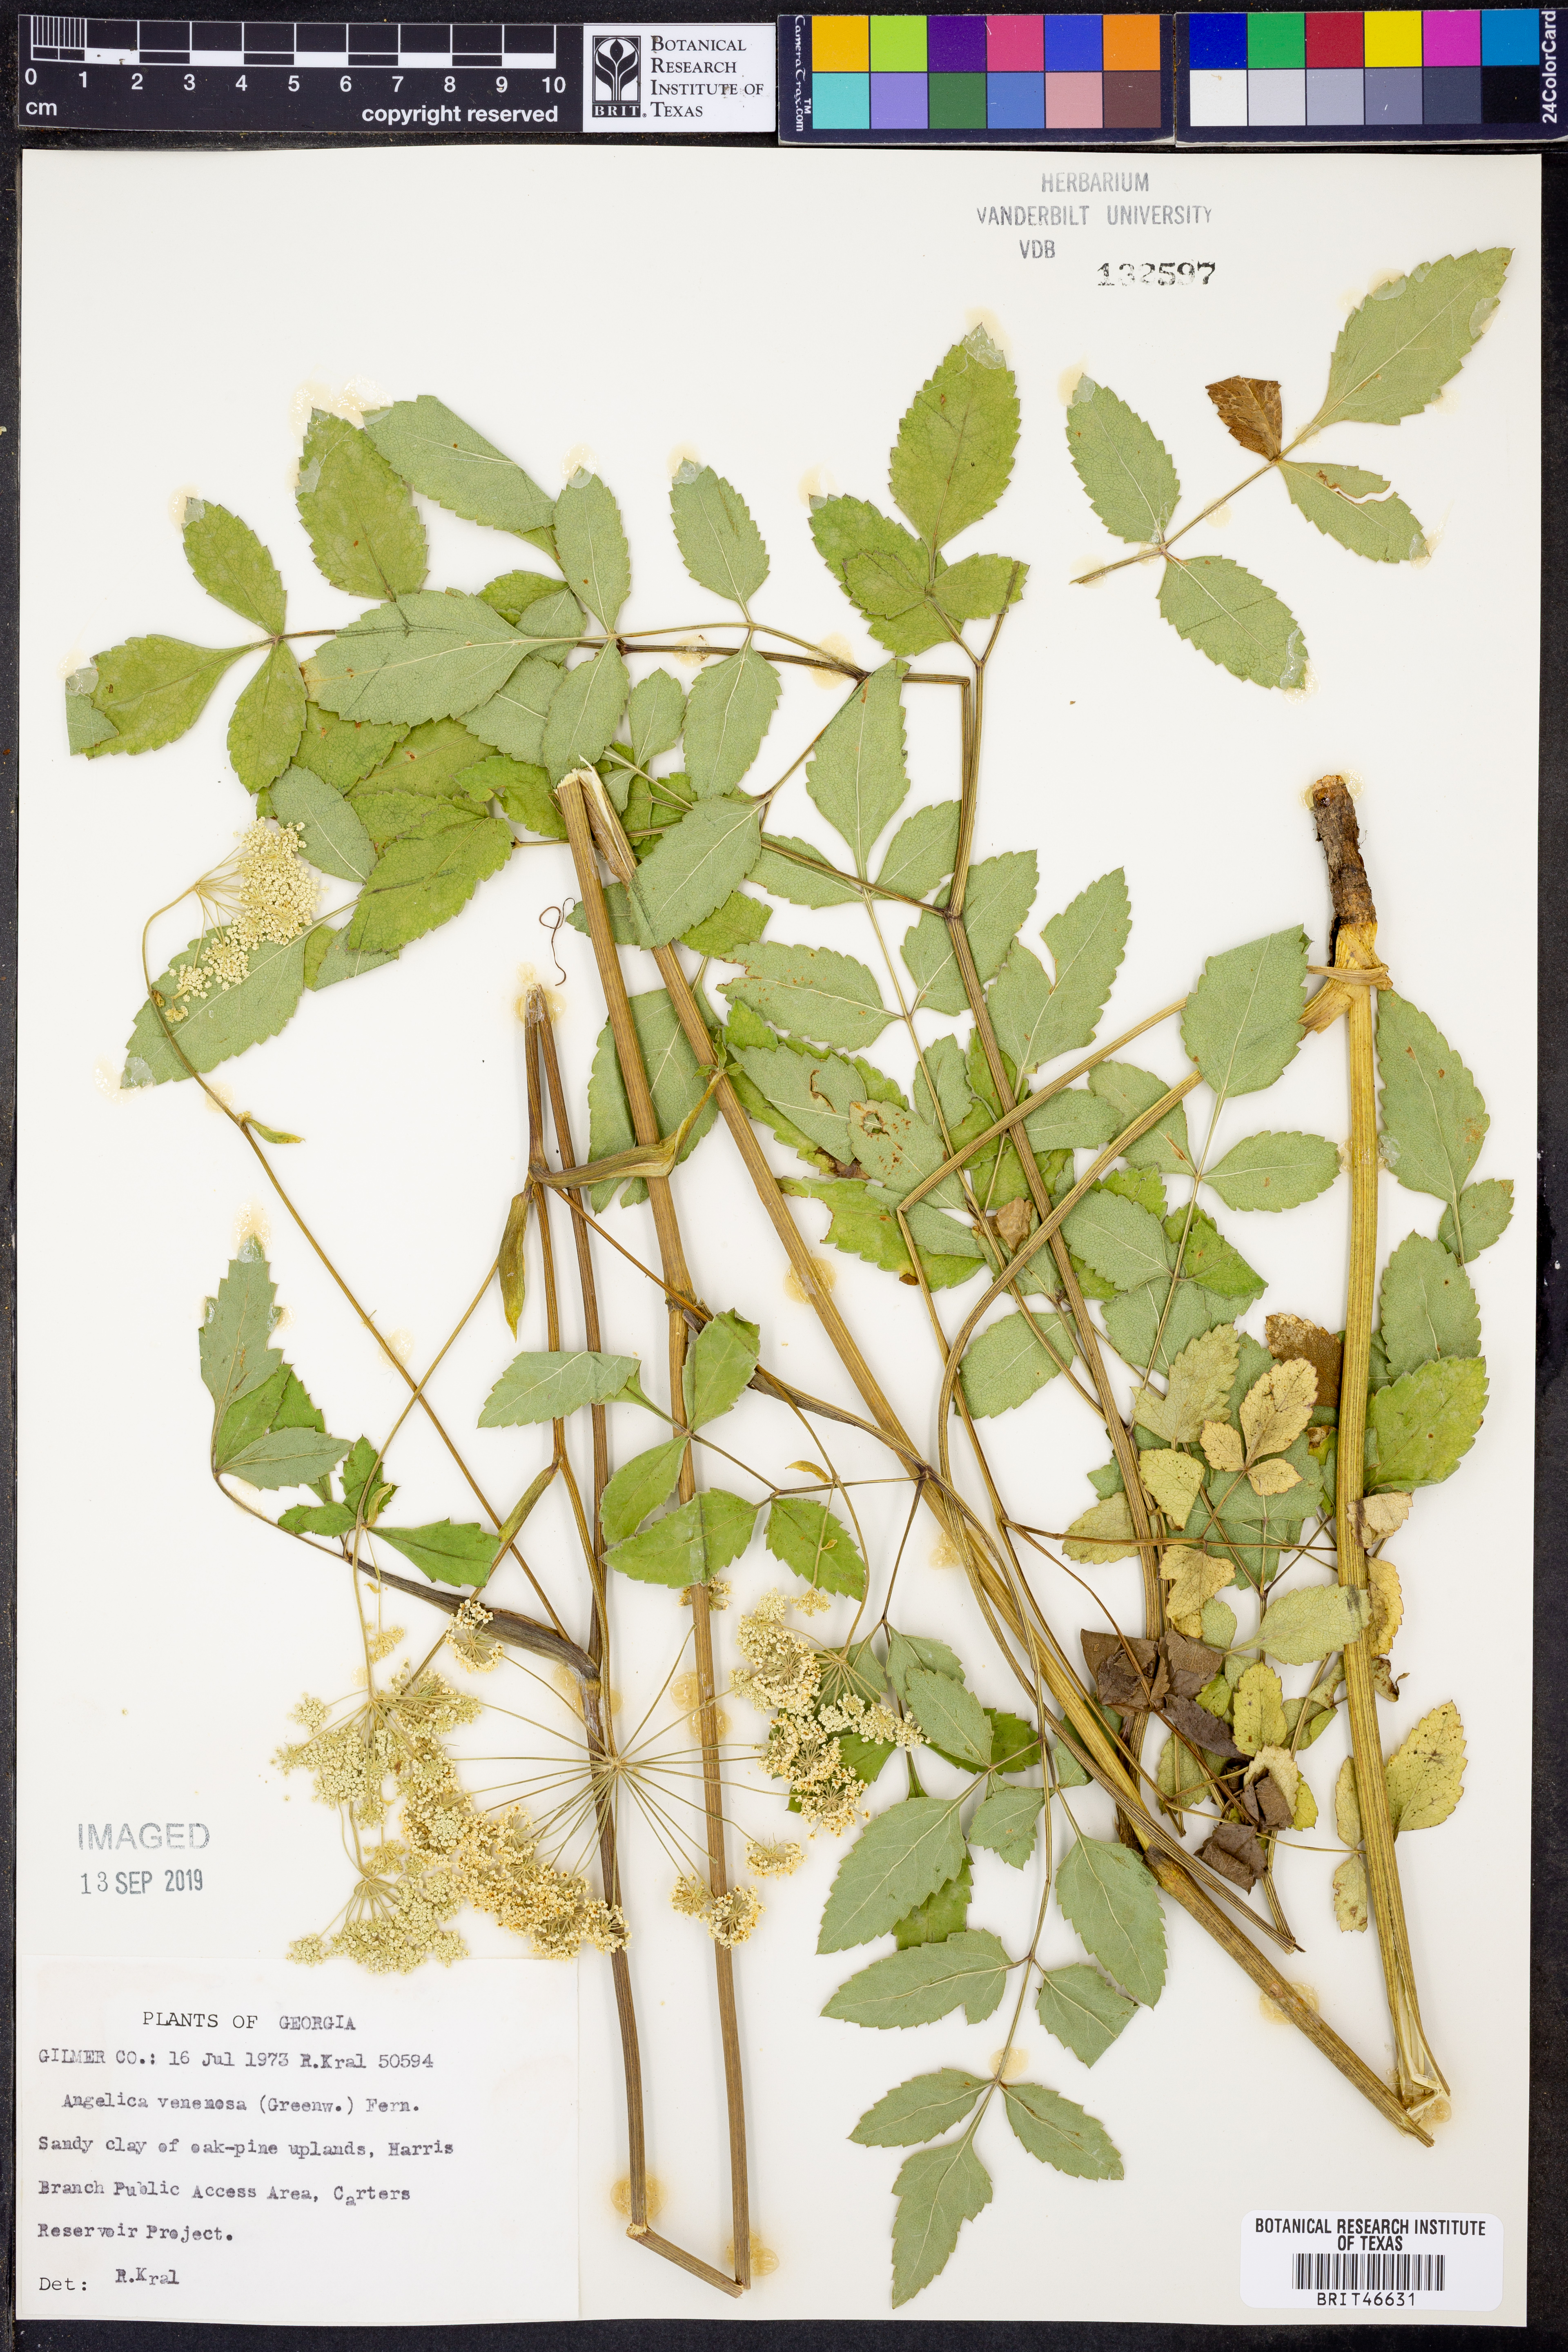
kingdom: Plantae
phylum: Tracheophyta
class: Magnoliopsida
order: Apiales
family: Apiaceae
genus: Angelica
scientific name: Angelica venenosa
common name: Hairy angelica
